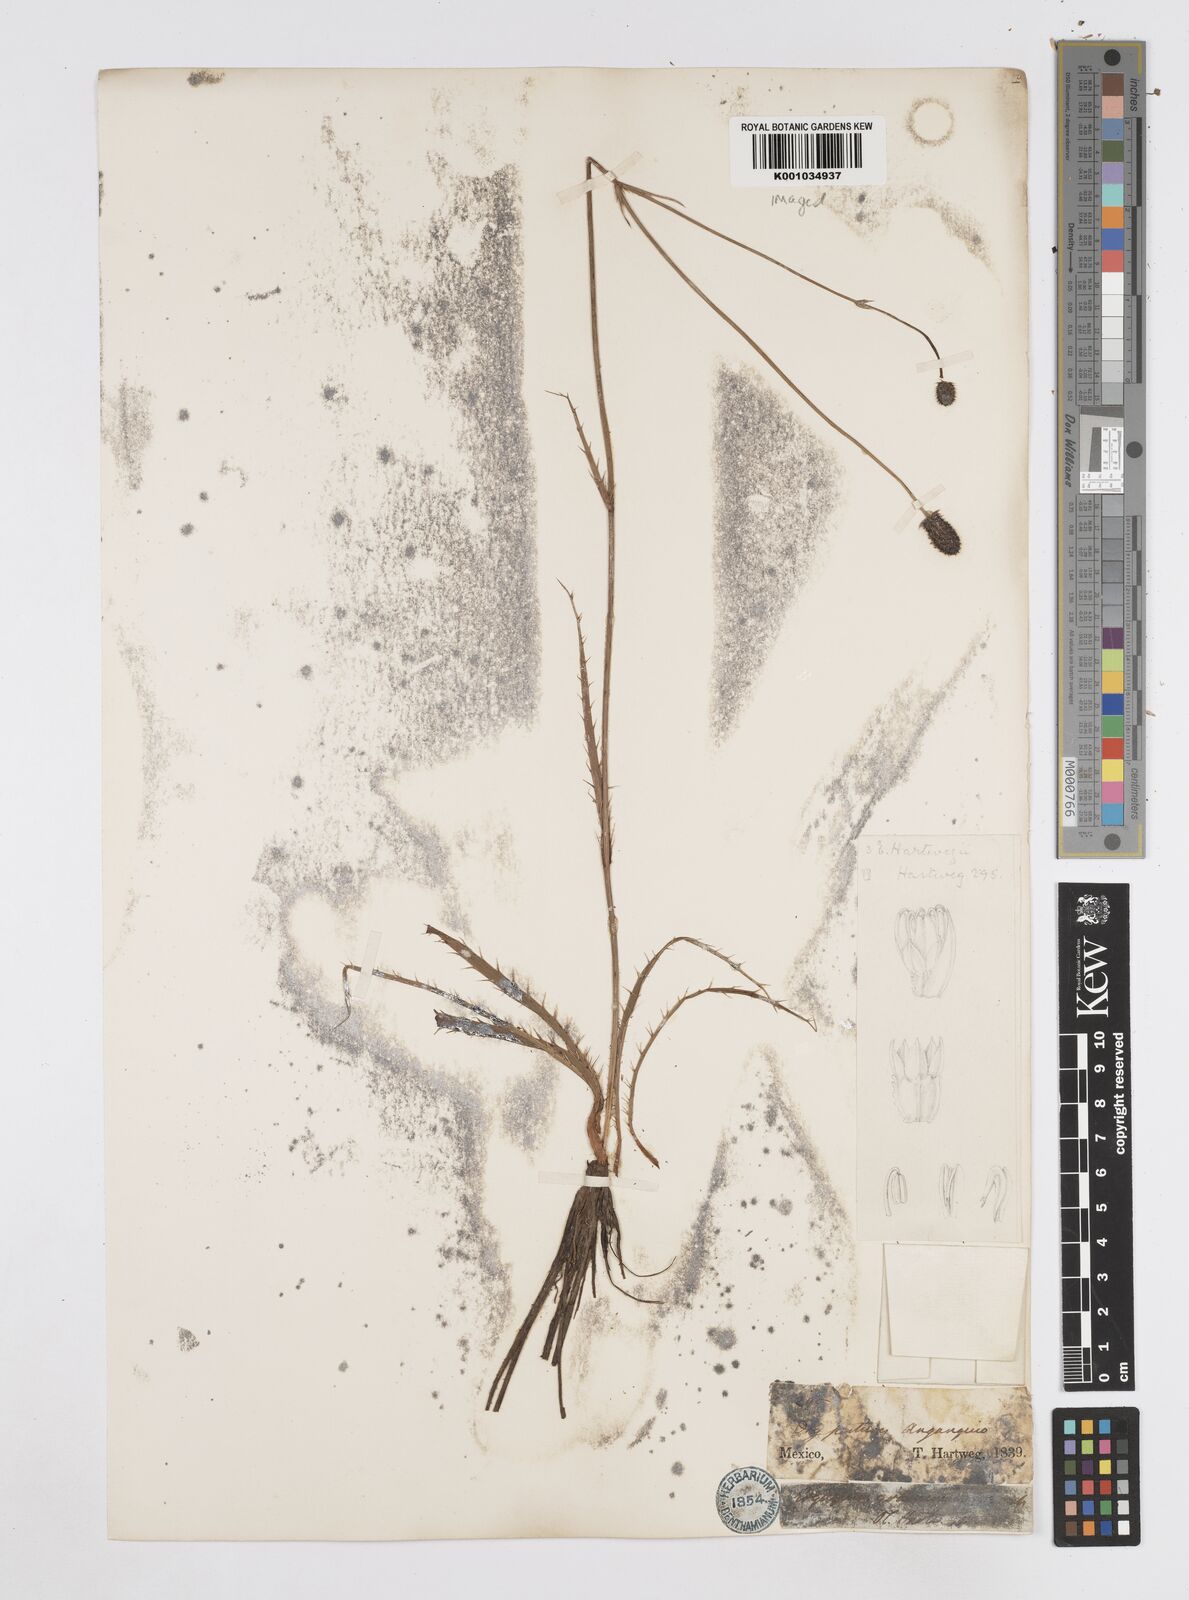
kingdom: Plantae
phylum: Tracheophyta
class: Magnoliopsida
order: Apiales
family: Apiaceae
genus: Eryngium
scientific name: Eryngium boissieuanum
